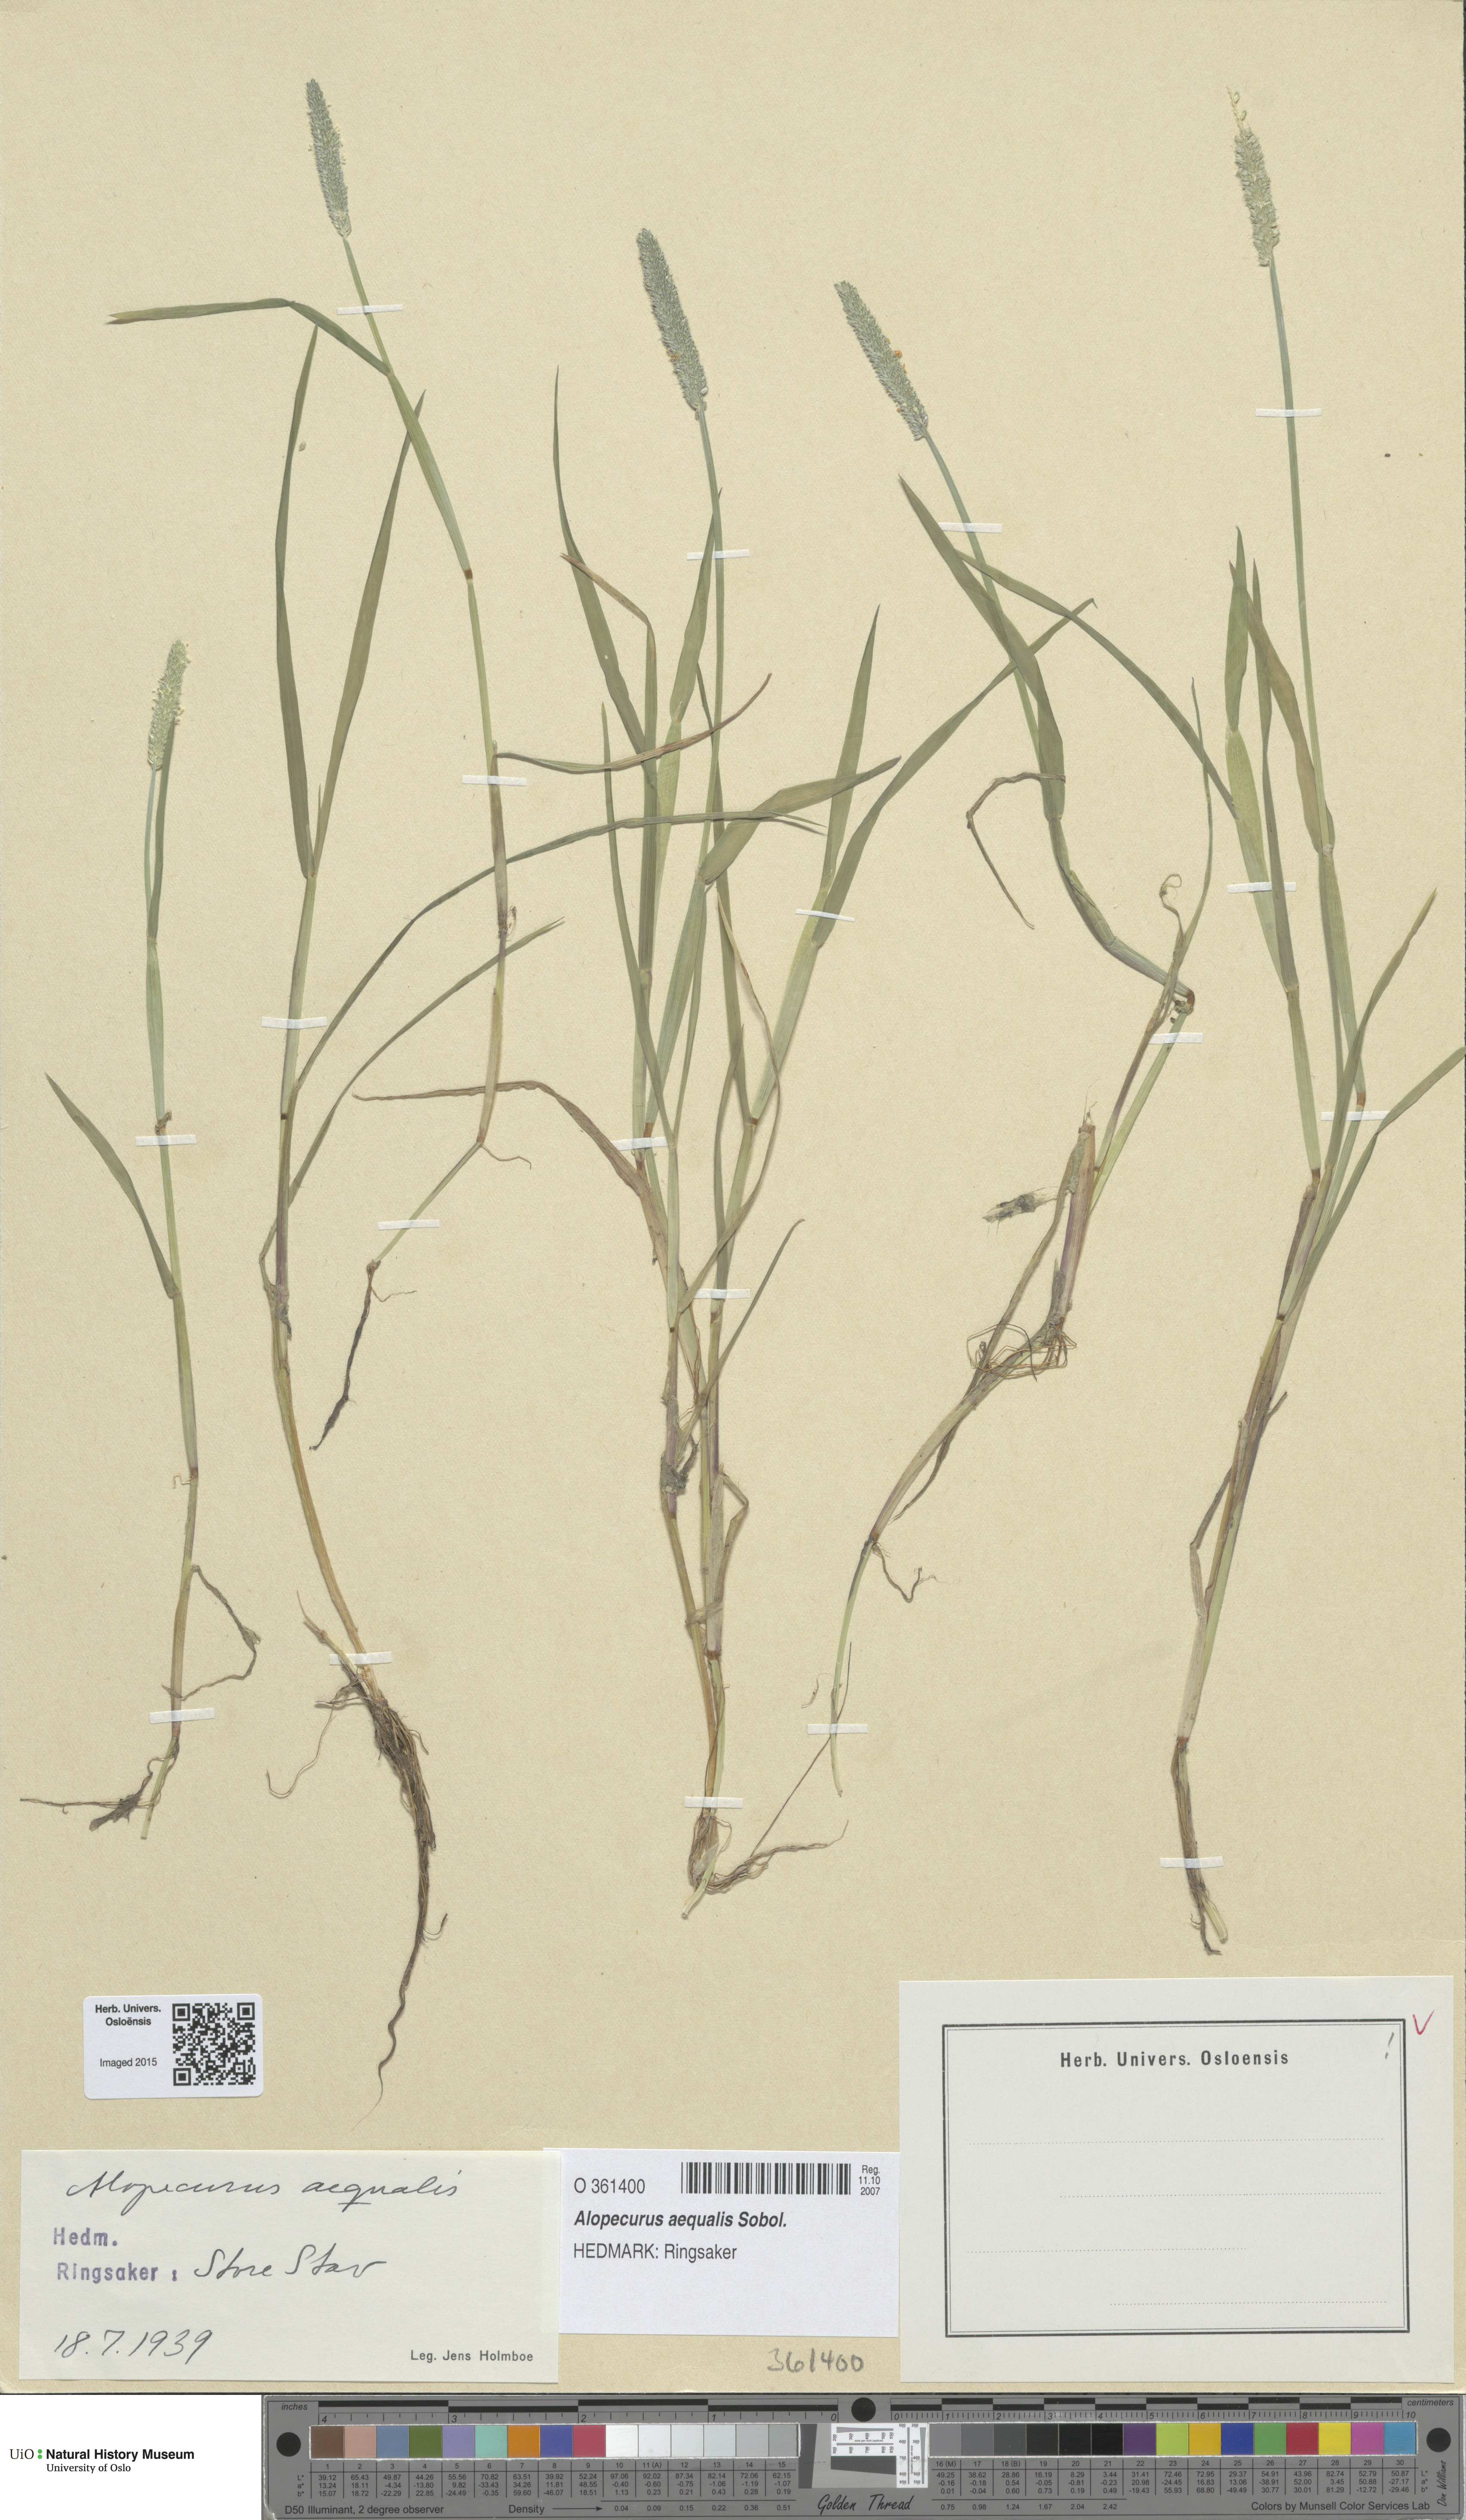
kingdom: Plantae
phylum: Tracheophyta
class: Liliopsida
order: Poales
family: Poaceae
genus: Alopecurus
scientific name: Alopecurus aequalis
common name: Orange foxtail
